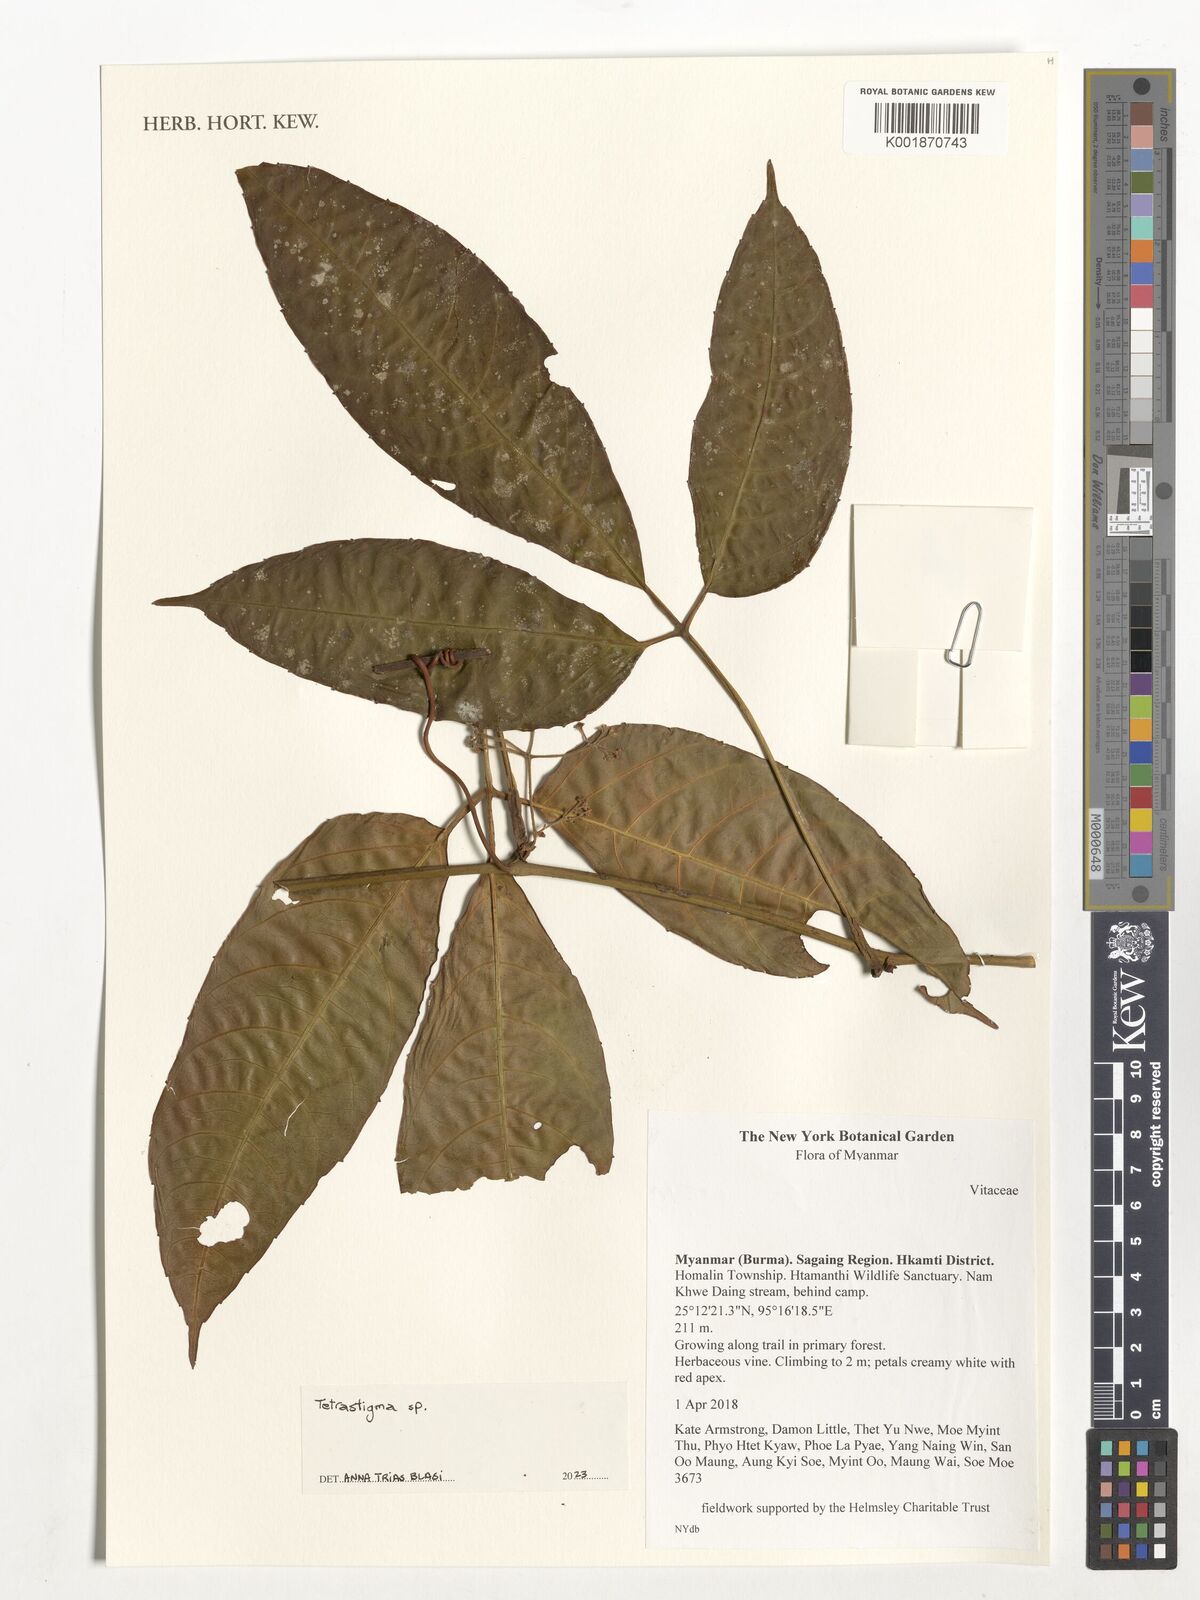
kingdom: Plantae
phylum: Tracheophyta
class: Magnoliopsida
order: Vitales
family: Vitaceae
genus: Tetrastigma
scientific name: Tetrastigma
